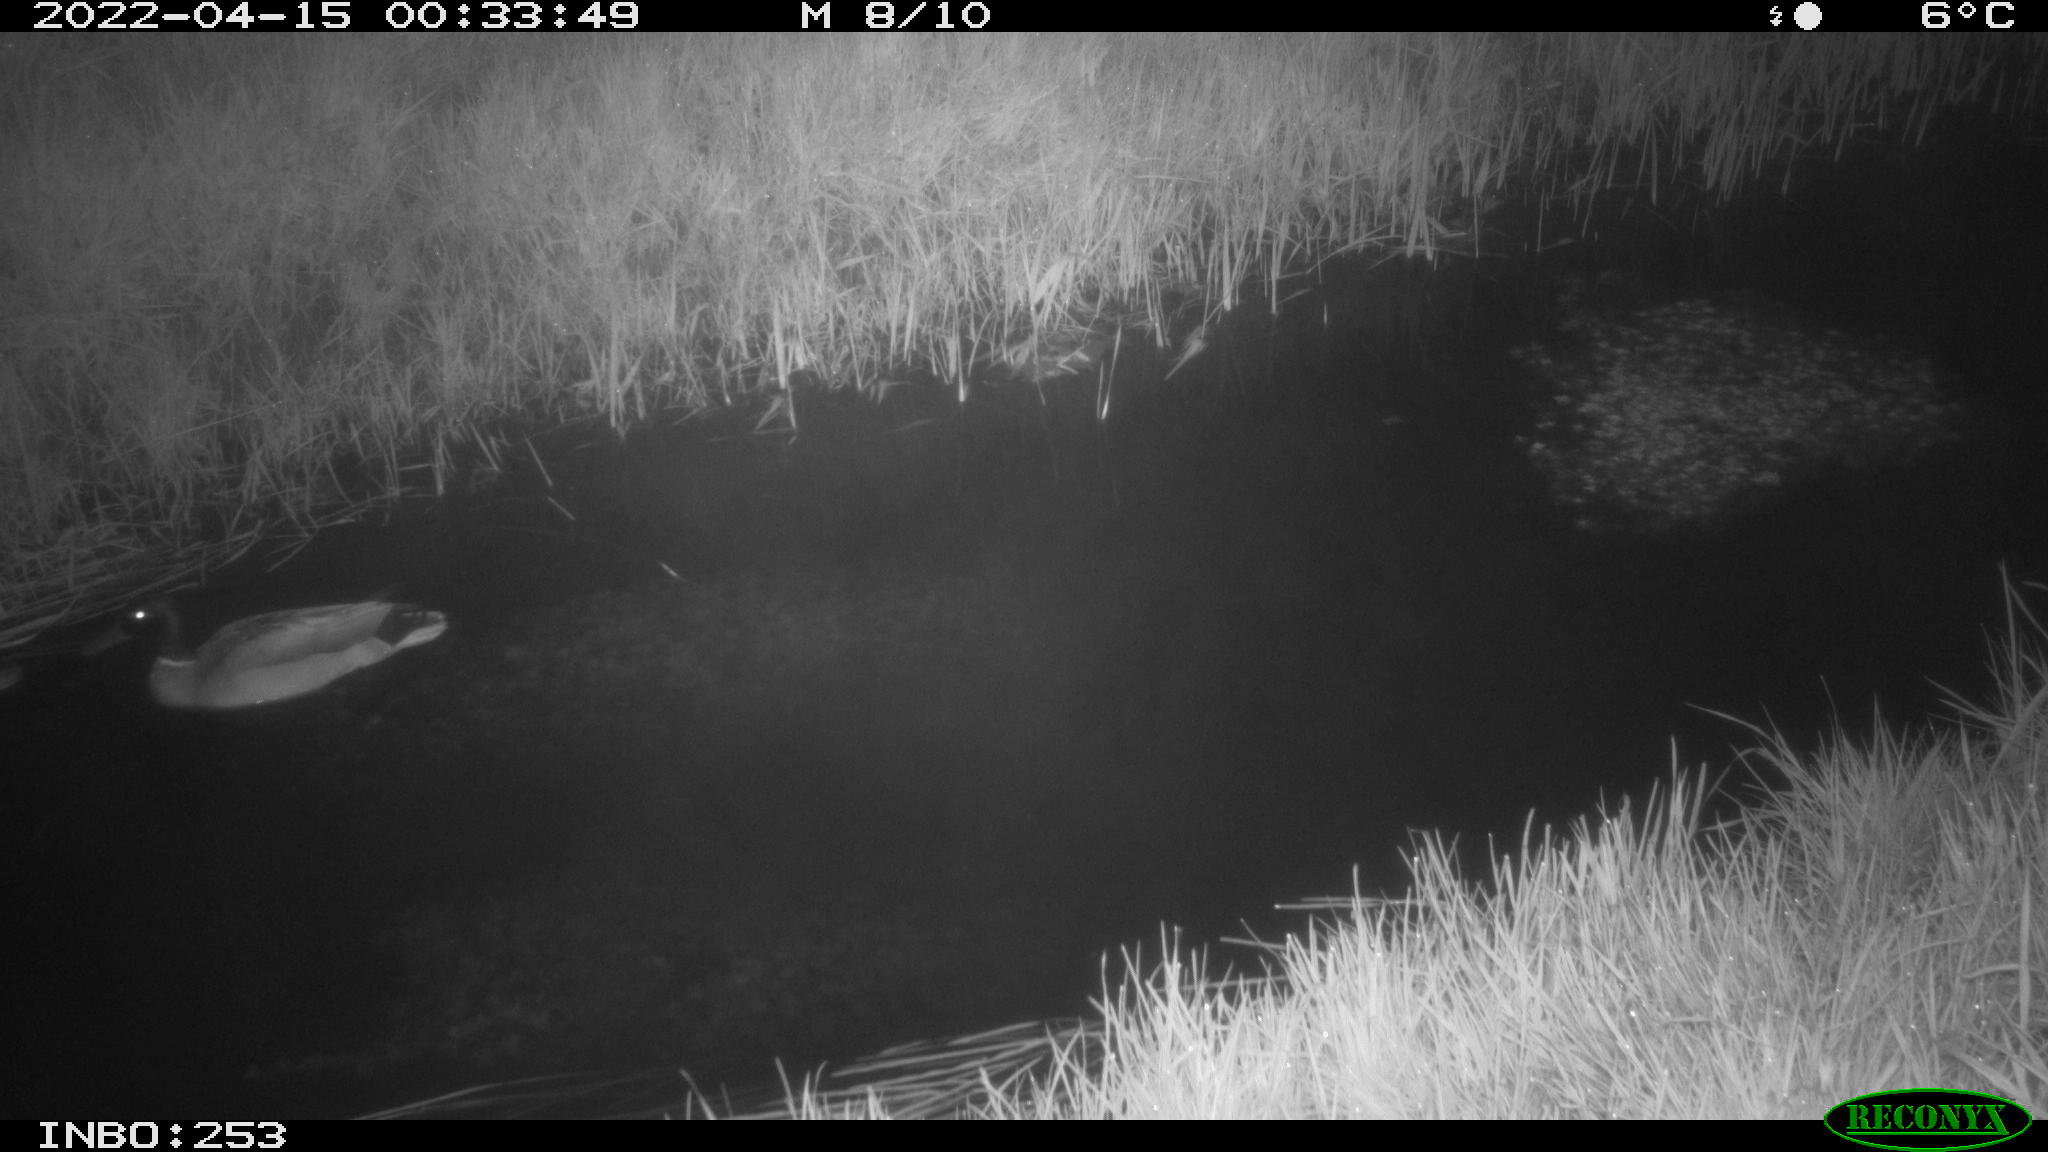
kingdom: Animalia
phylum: Chordata
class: Aves
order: Anseriformes
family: Anatidae
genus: Anas
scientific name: Anas platyrhynchos
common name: Mallard
